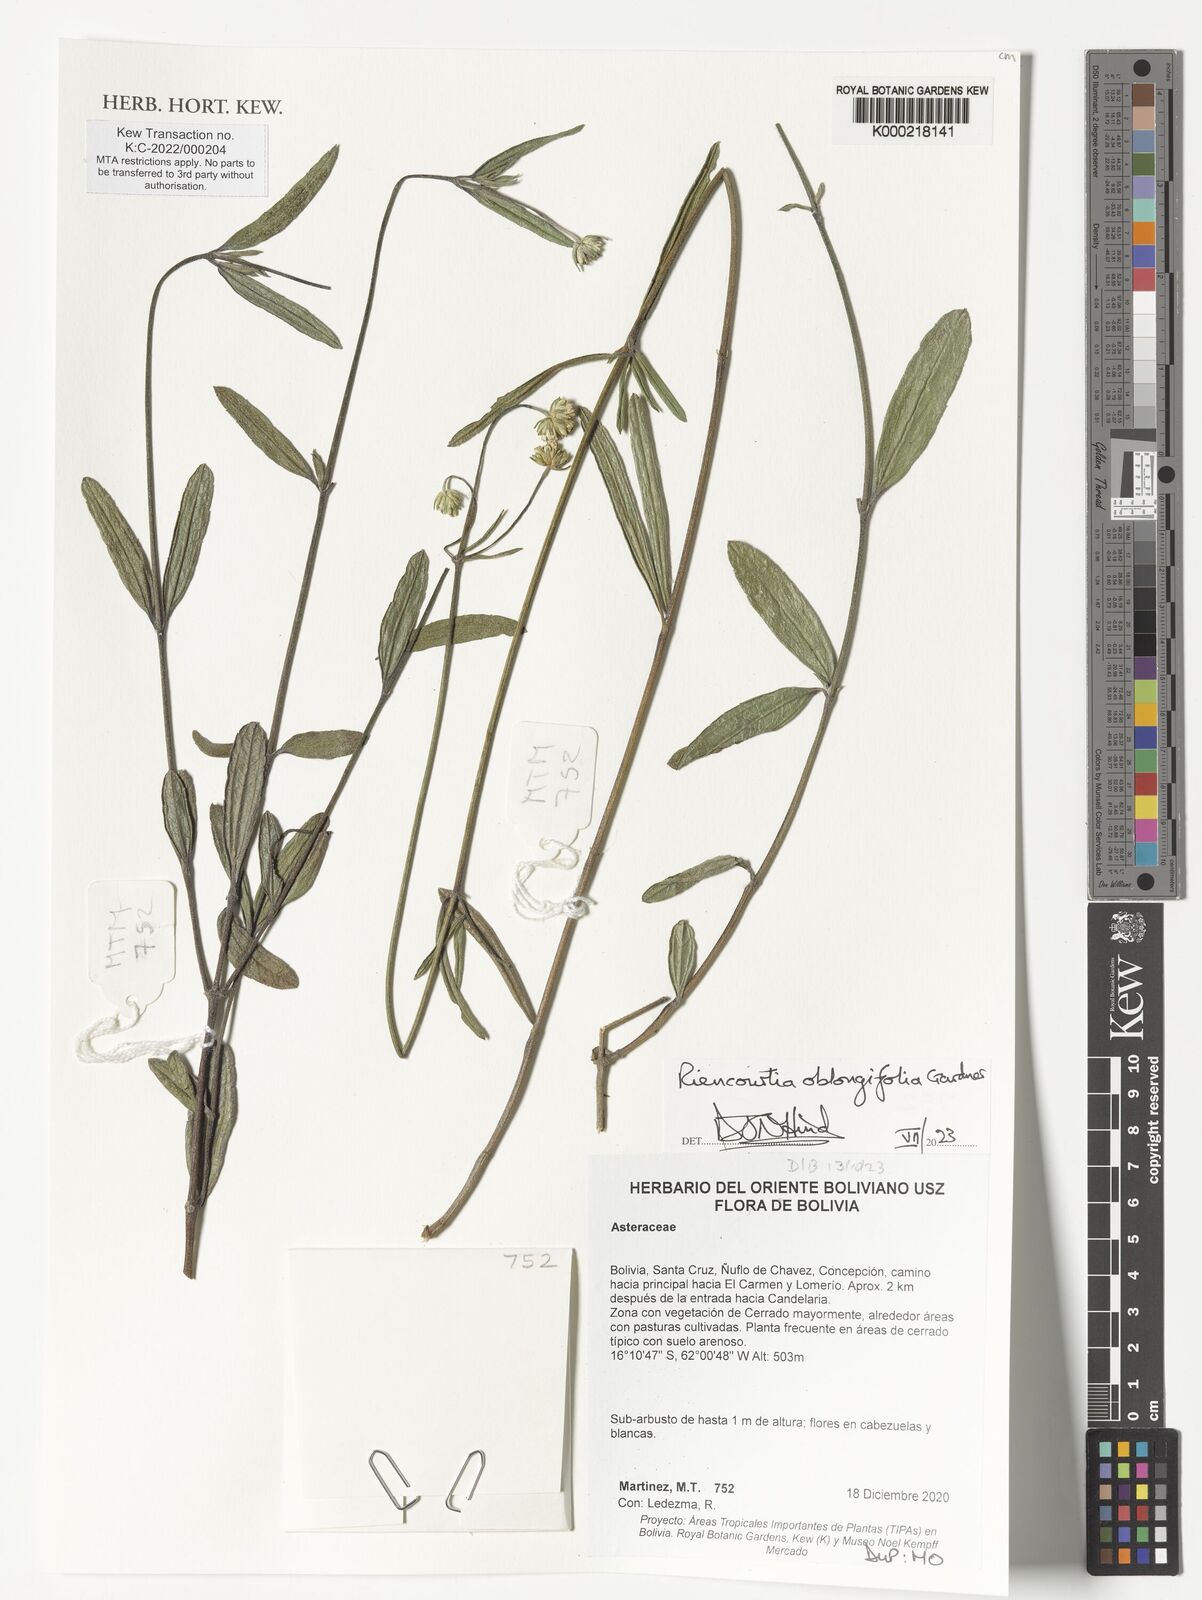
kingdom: Plantae
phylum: Tracheophyta
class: Magnoliopsida
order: Asterales
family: Asteraceae
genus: Riencourtia
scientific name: Riencourtia oblongifolia
